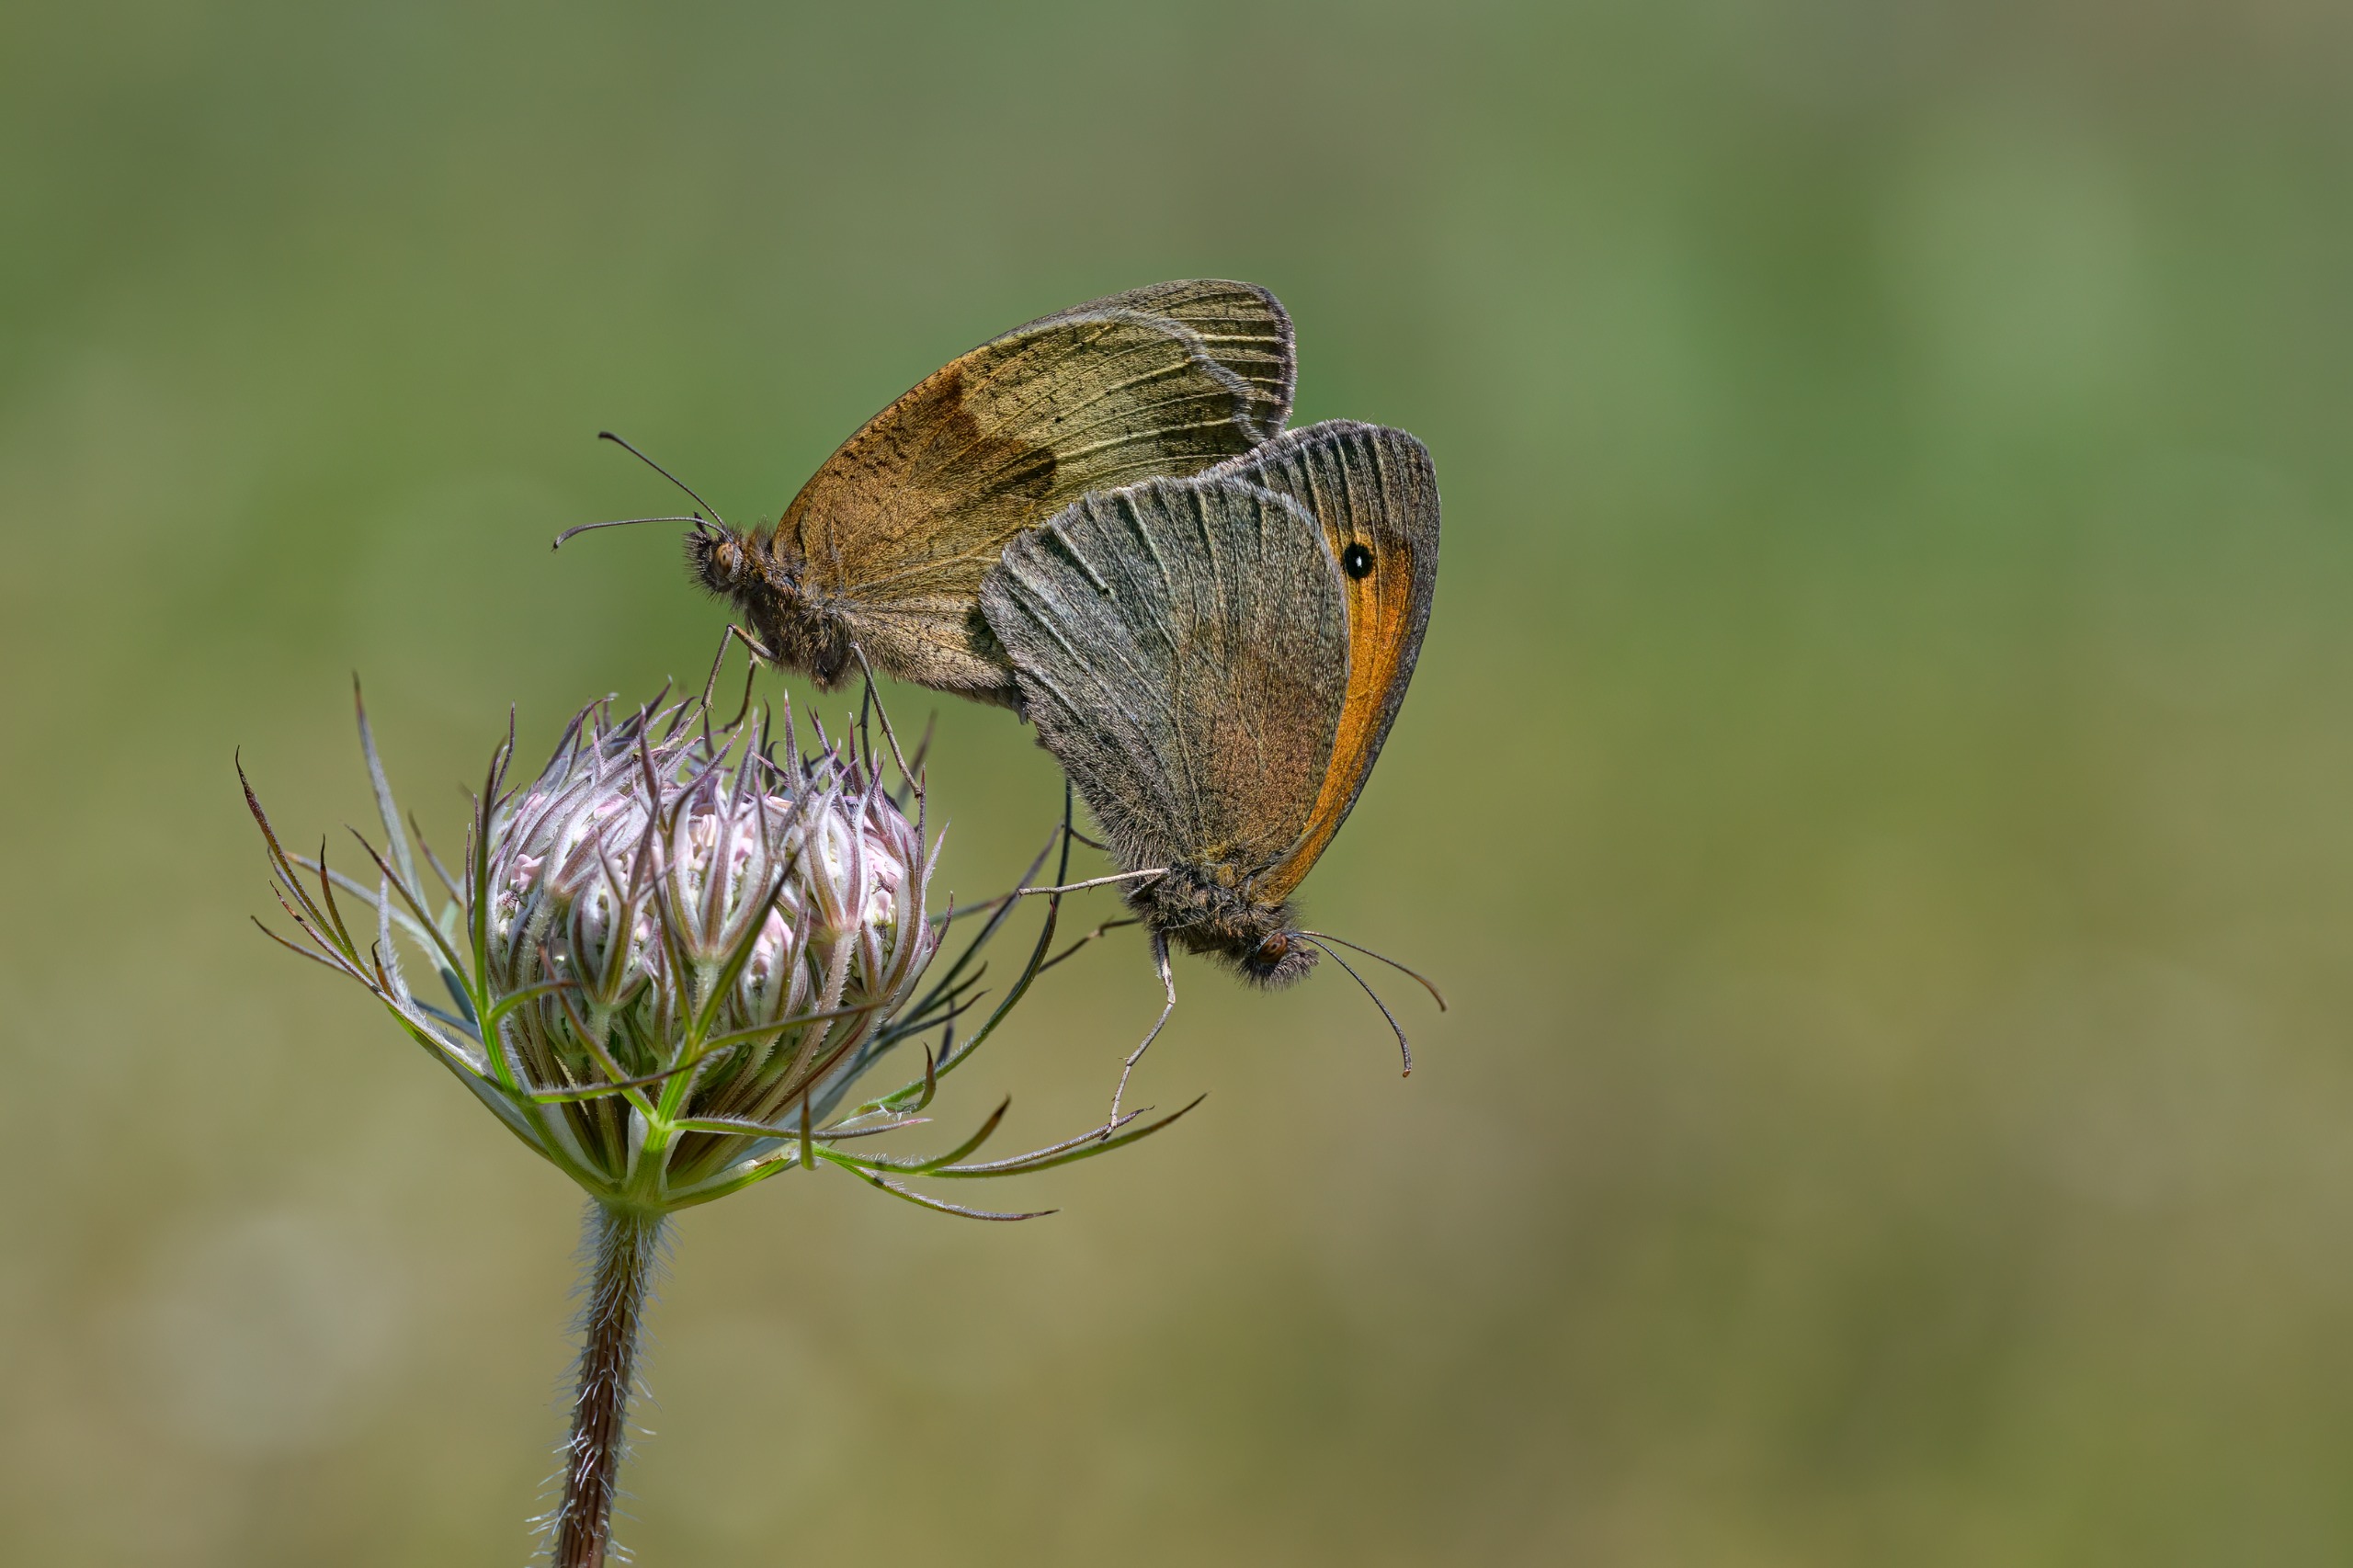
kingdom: Animalia
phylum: Arthropoda
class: Insecta
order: Lepidoptera
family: Nymphalidae
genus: Maniola
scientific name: Maniola jurtina
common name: Græsrandøje
